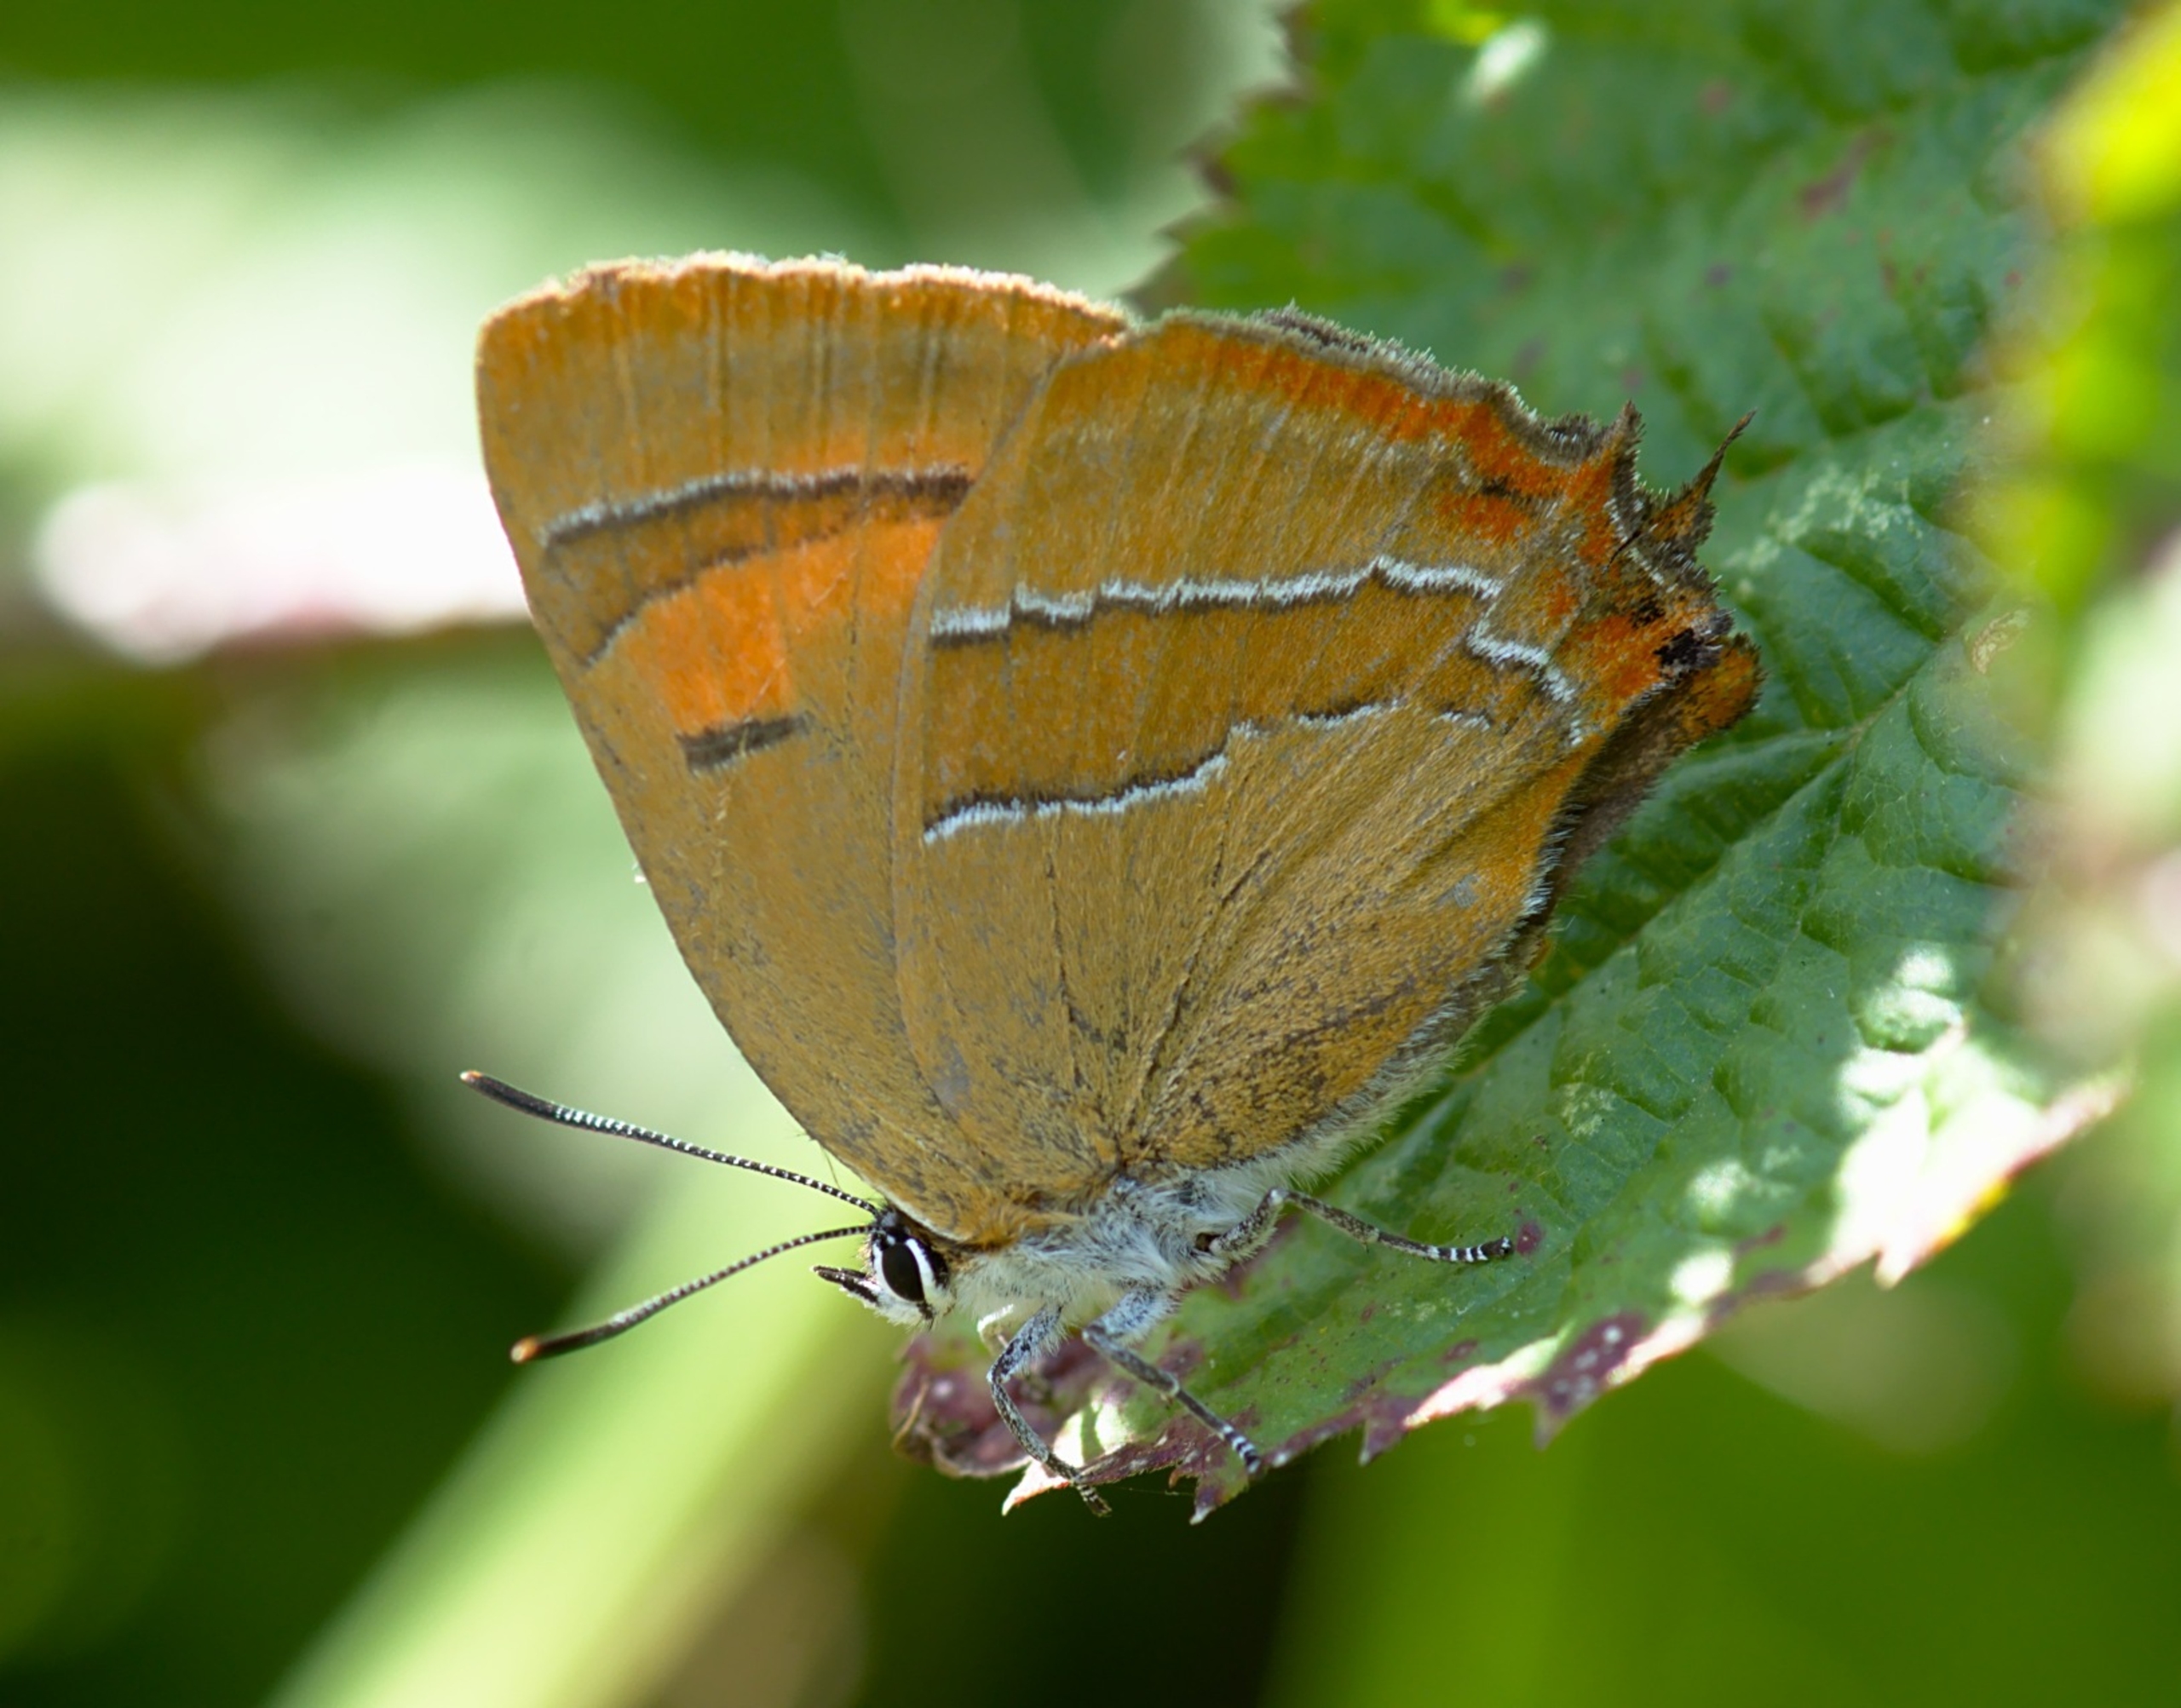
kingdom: Animalia
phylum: Arthropoda
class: Insecta
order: Lepidoptera
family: Lycaenidae
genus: Thecla
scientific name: Thecla betulae
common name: Guldhale
